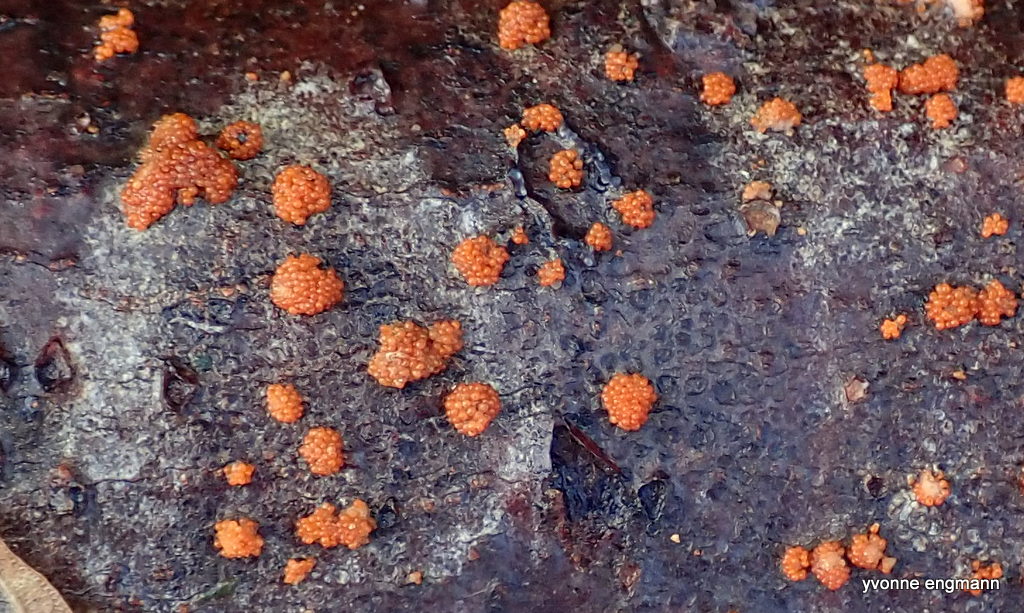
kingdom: Fungi
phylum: Ascomycota
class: Sordariomycetes
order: Hypocreales
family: Nectriaceae
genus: Nectria
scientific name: Nectria cinnabarina
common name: almindelig cinnobersvamp
